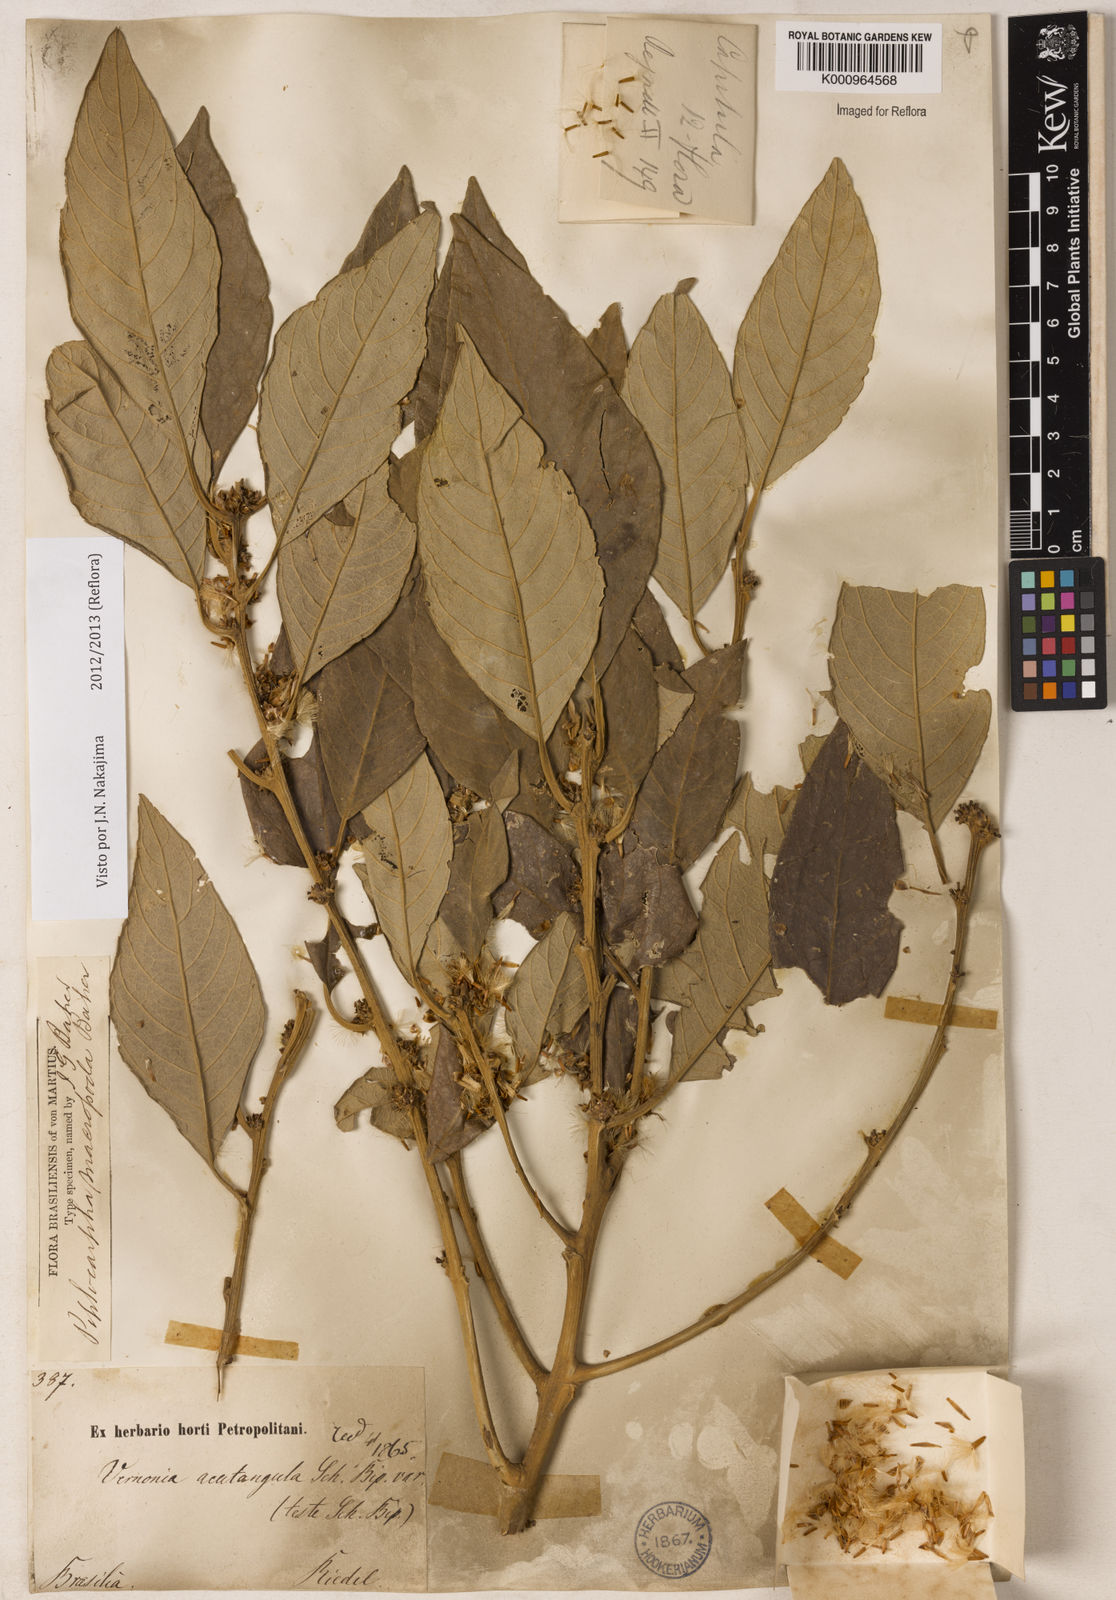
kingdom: Plantae
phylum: Tracheophyta
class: Magnoliopsida
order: Asterales
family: Asteraceae
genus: Piptocarpha
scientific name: Piptocarpha macropoda
